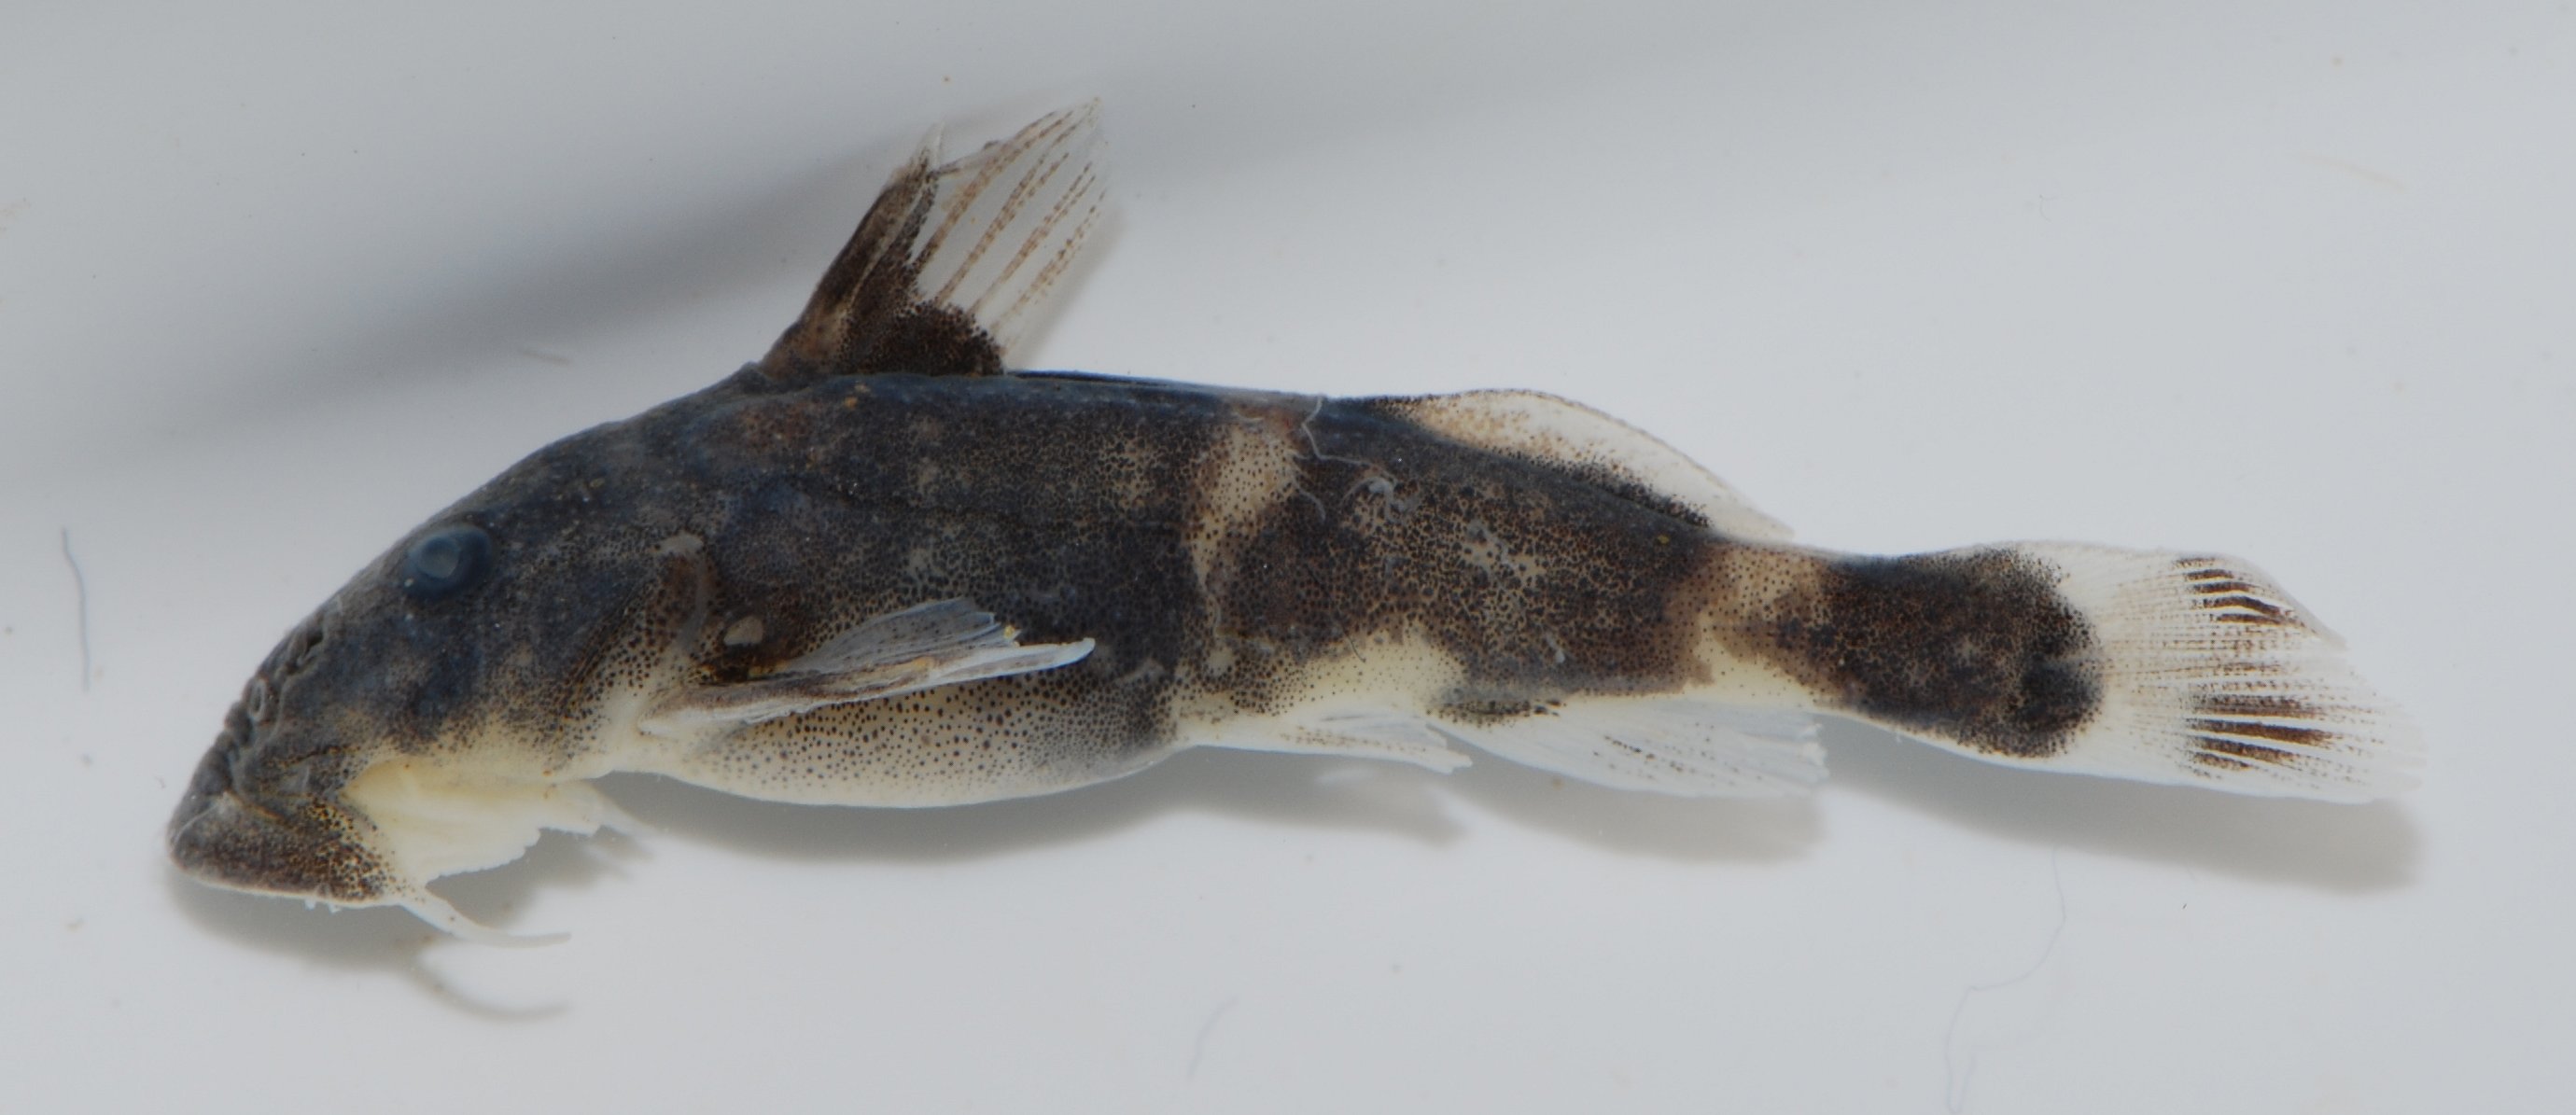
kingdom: Animalia
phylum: Chordata
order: Siluriformes
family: Mochokidae
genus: Chiloglanis
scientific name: Chiloglanis
